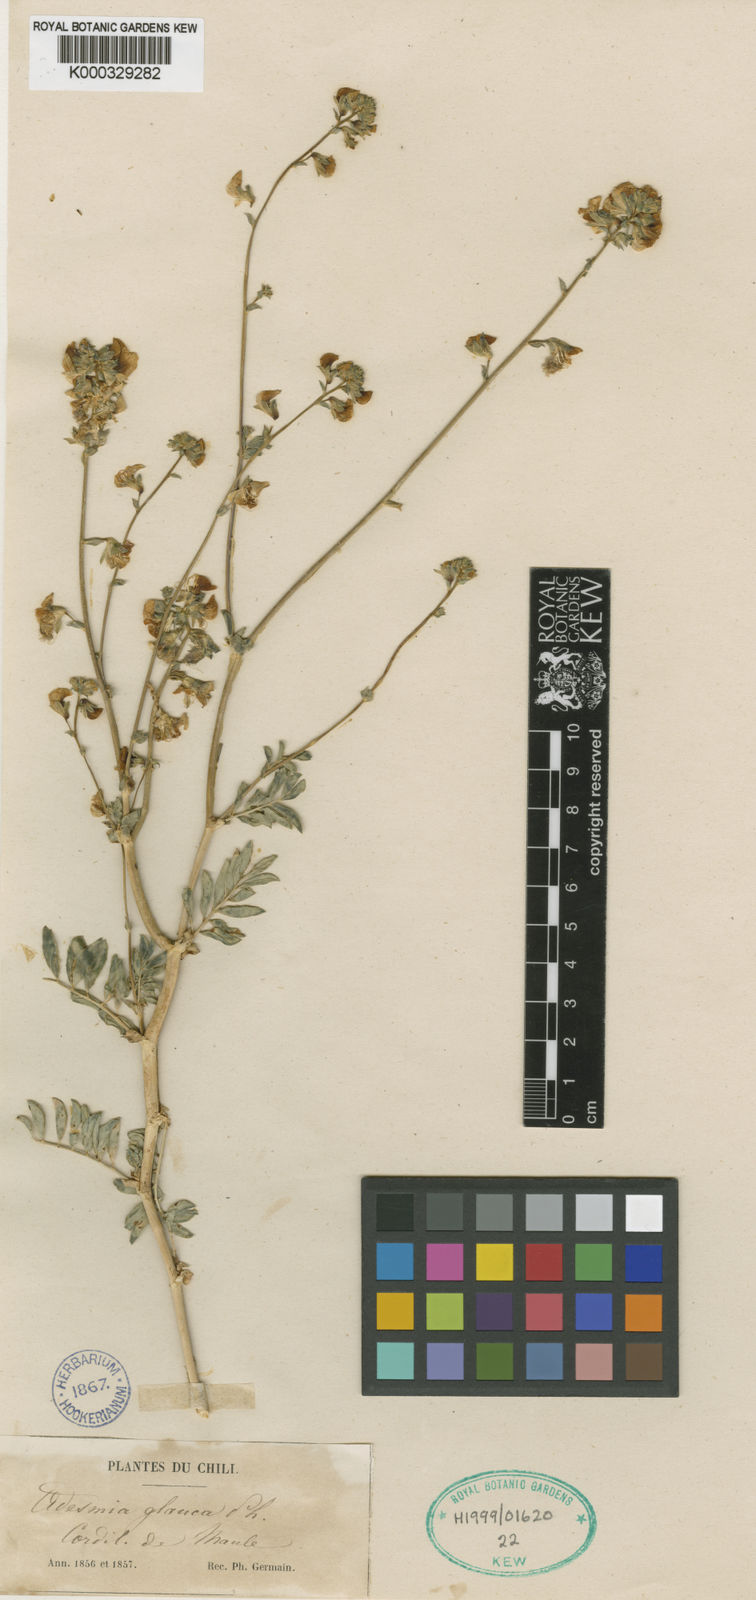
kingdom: Plantae
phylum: Tracheophyta
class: Magnoliopsida
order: Fabales
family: Fabaceae
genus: Adesmia
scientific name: Adesmia coronilloides
